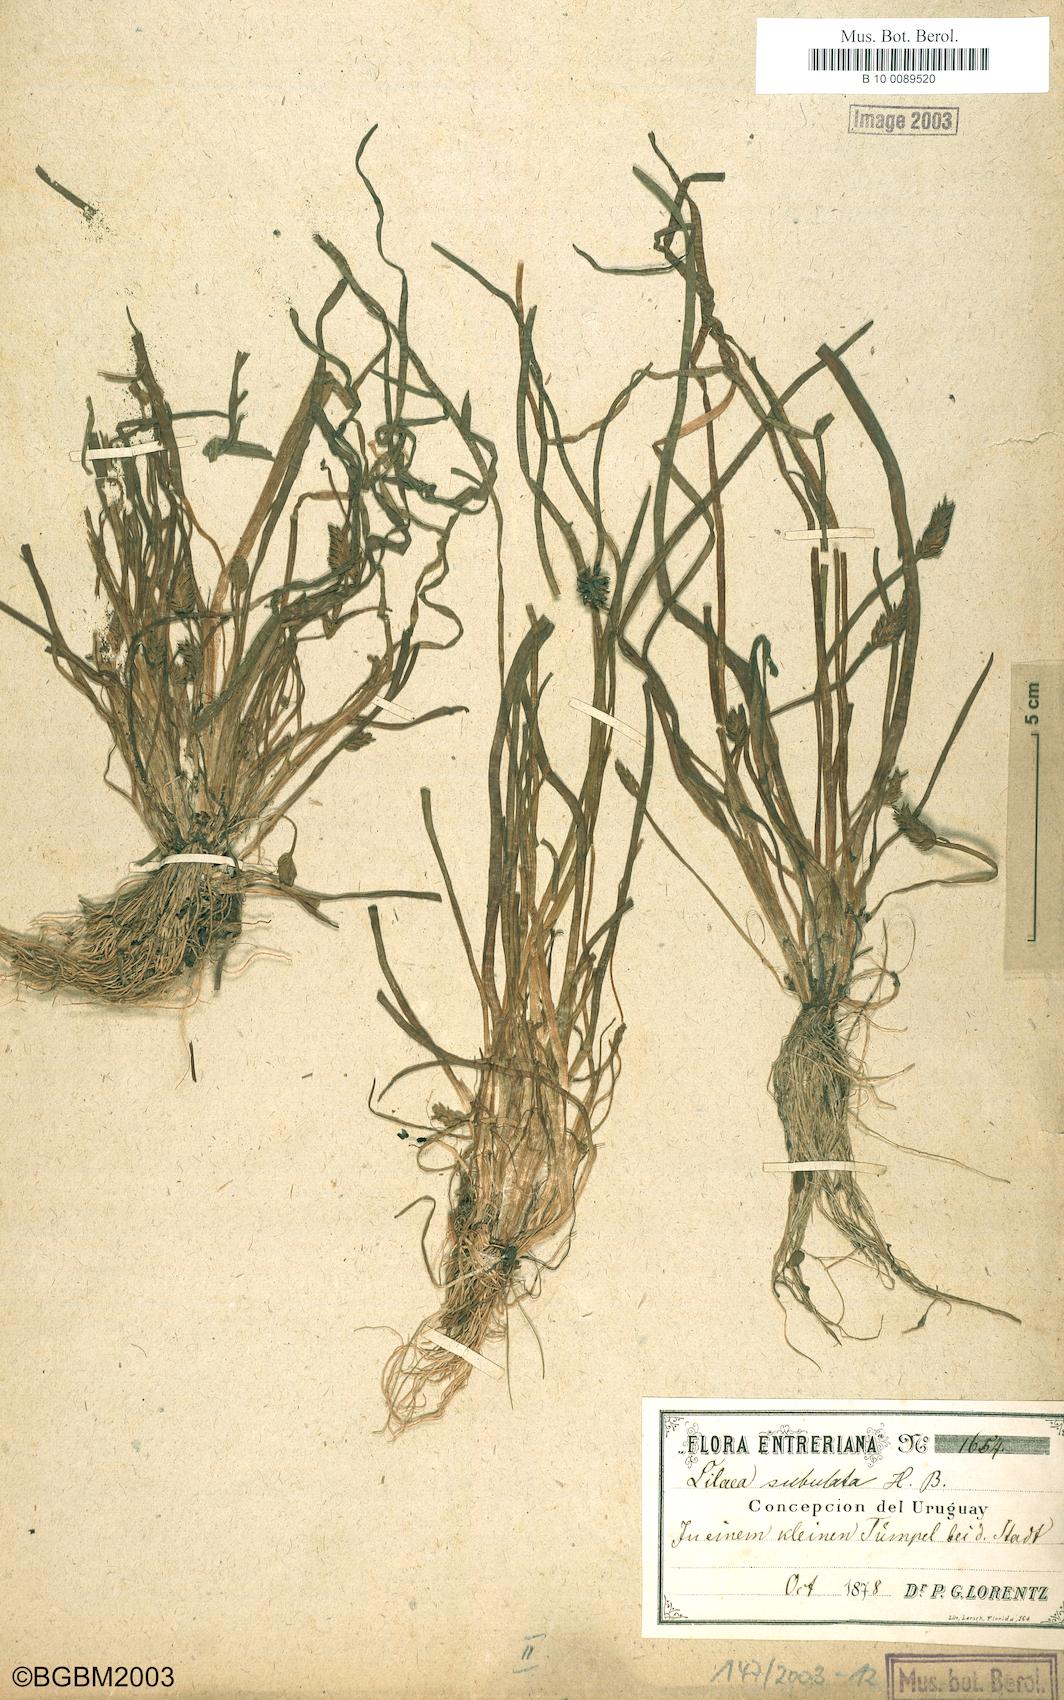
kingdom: Plantae
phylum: Tracheophyta
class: Liliopsida
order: Alismatales
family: Juncaginaceae
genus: Triglochin
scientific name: Triglochin scilloides
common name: Awl-leaved lilaea
